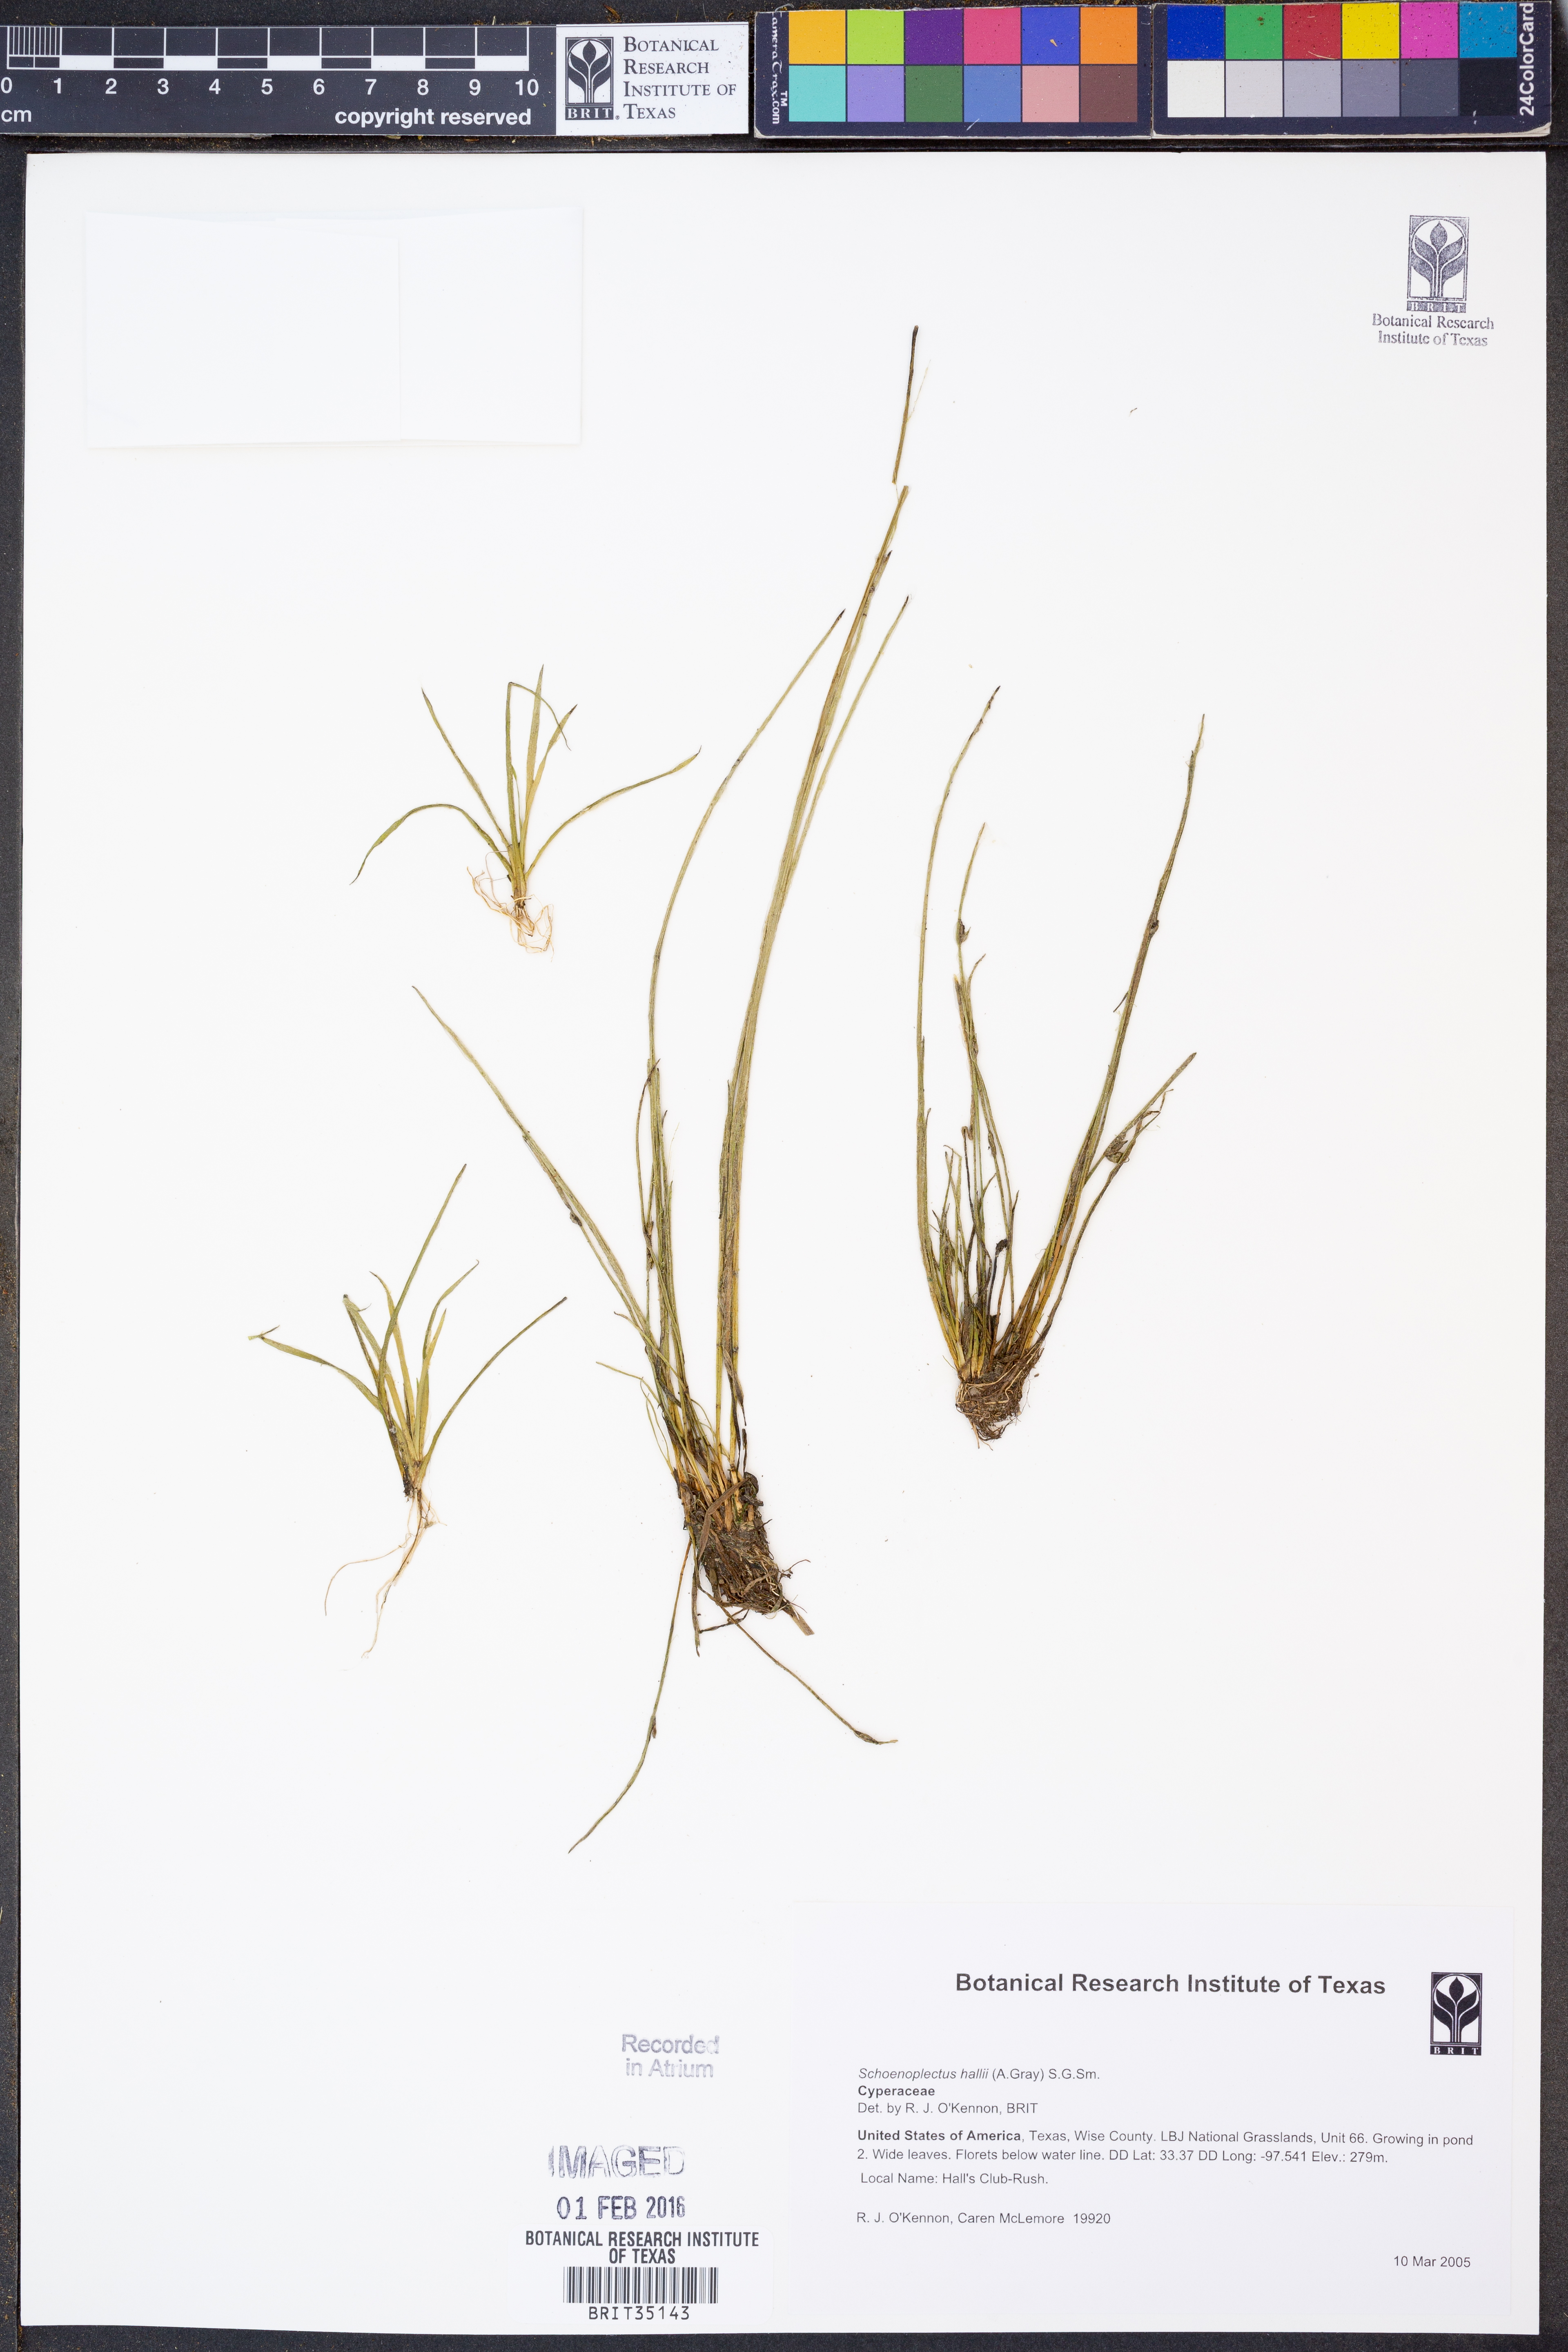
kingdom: Plantae
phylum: Tracheophyta
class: Liliopsida
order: Poales
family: Cyperaceae
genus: Schoenoplectiella
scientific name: Schoenoplectiella hallii
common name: Hall's bullrush
